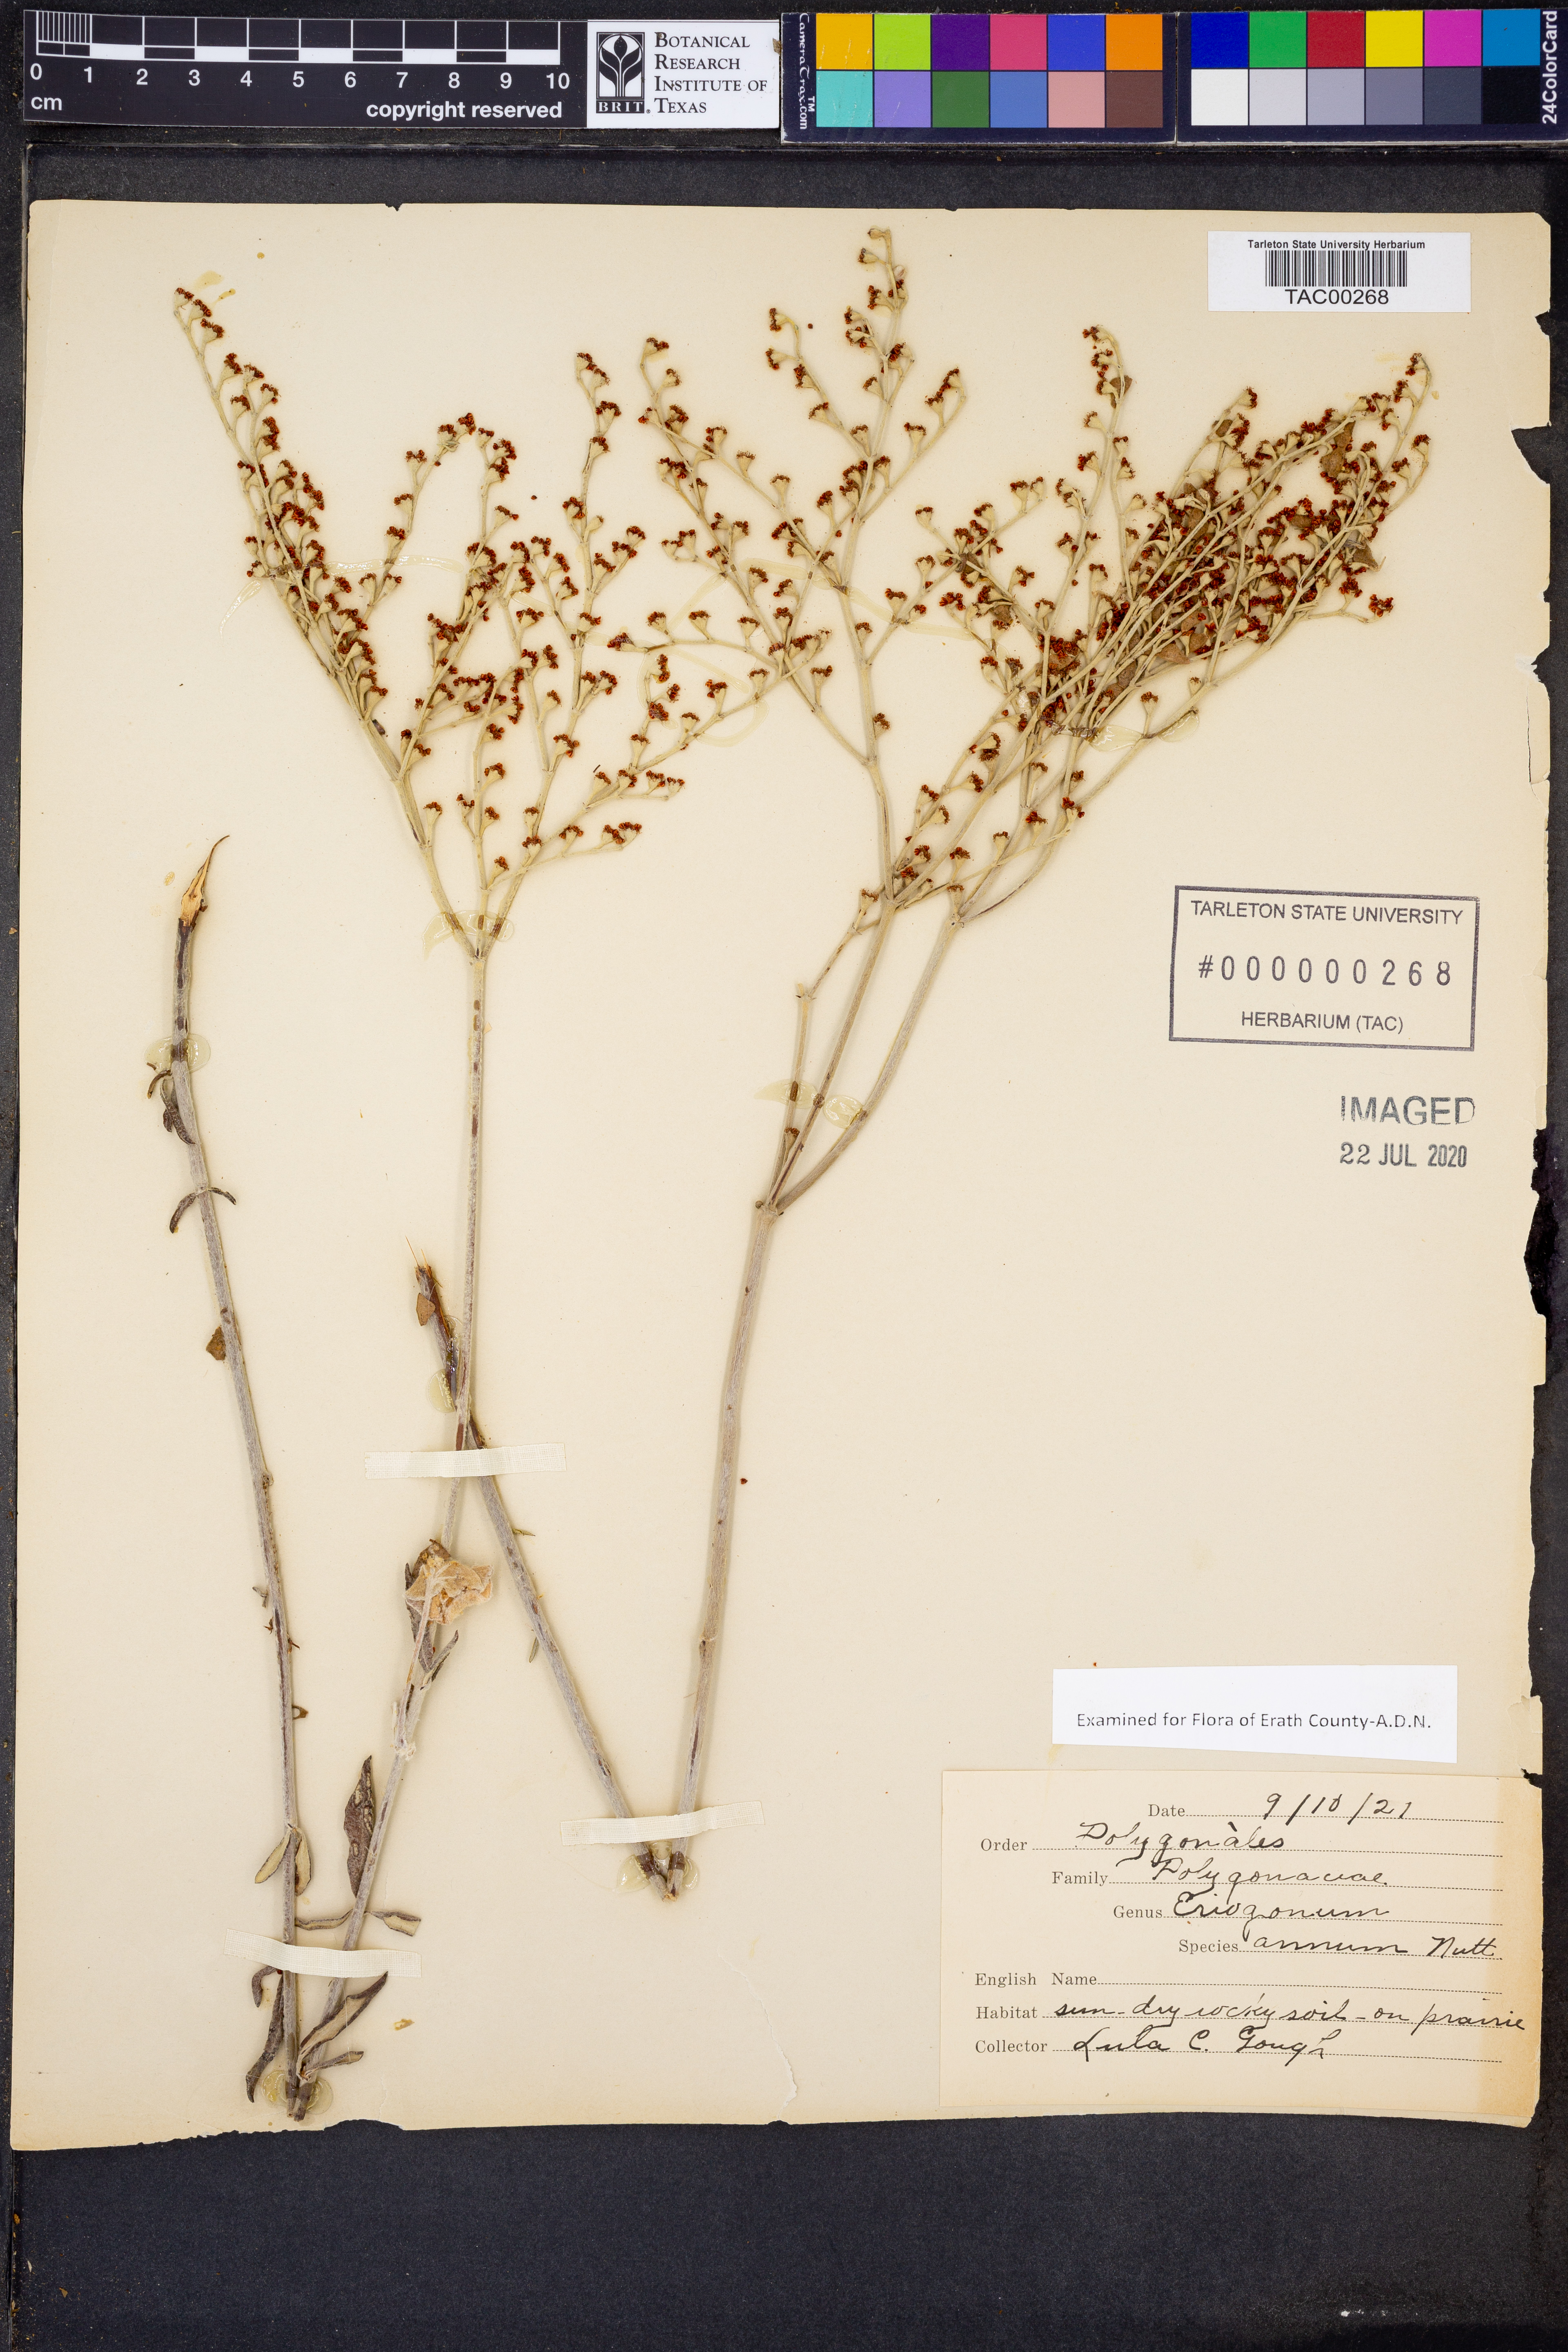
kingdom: Plantae
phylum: Tracheophyta
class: Magnoliopsida
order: Caryophyllales
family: Polygonaceae
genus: Eriogonum
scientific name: Eriogonum annuum
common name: Annual wild buckwheat
